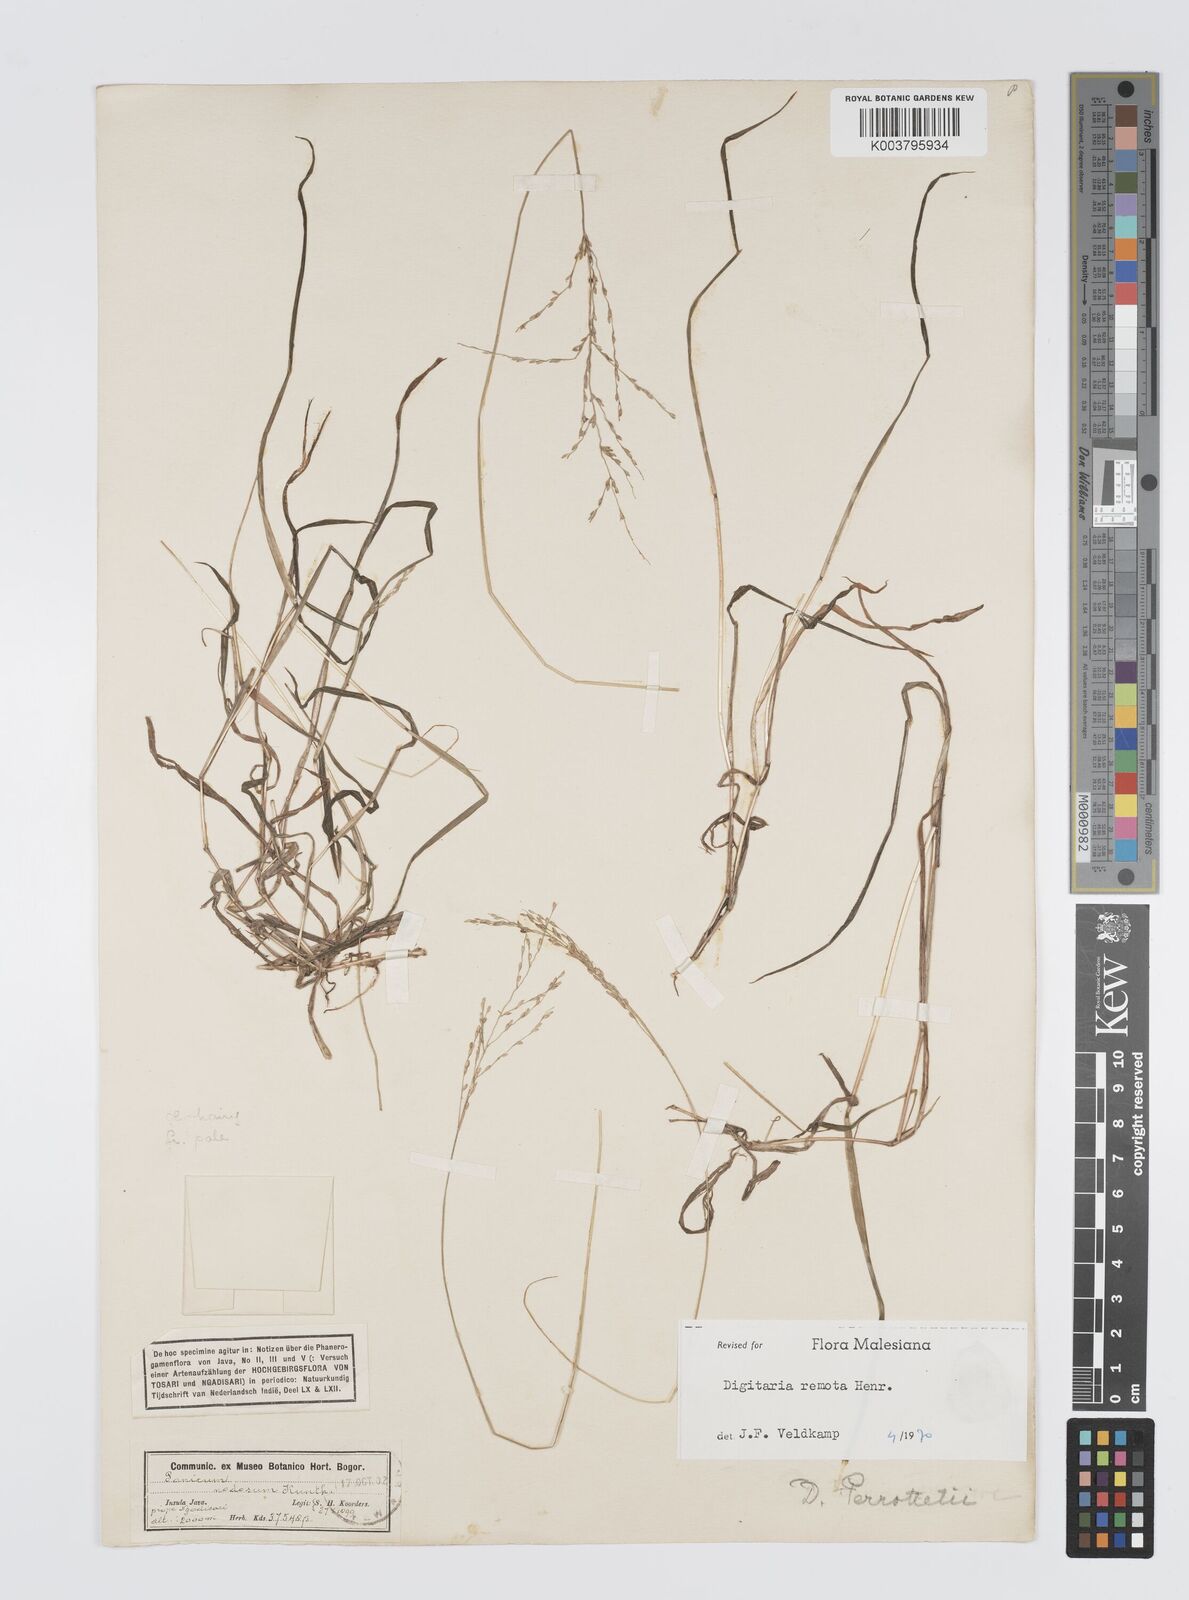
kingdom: Plantae
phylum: Tracheophyta
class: Liliopsida
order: Poales
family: Poaceae
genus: Digitaria
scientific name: Digitaria wallichiana
